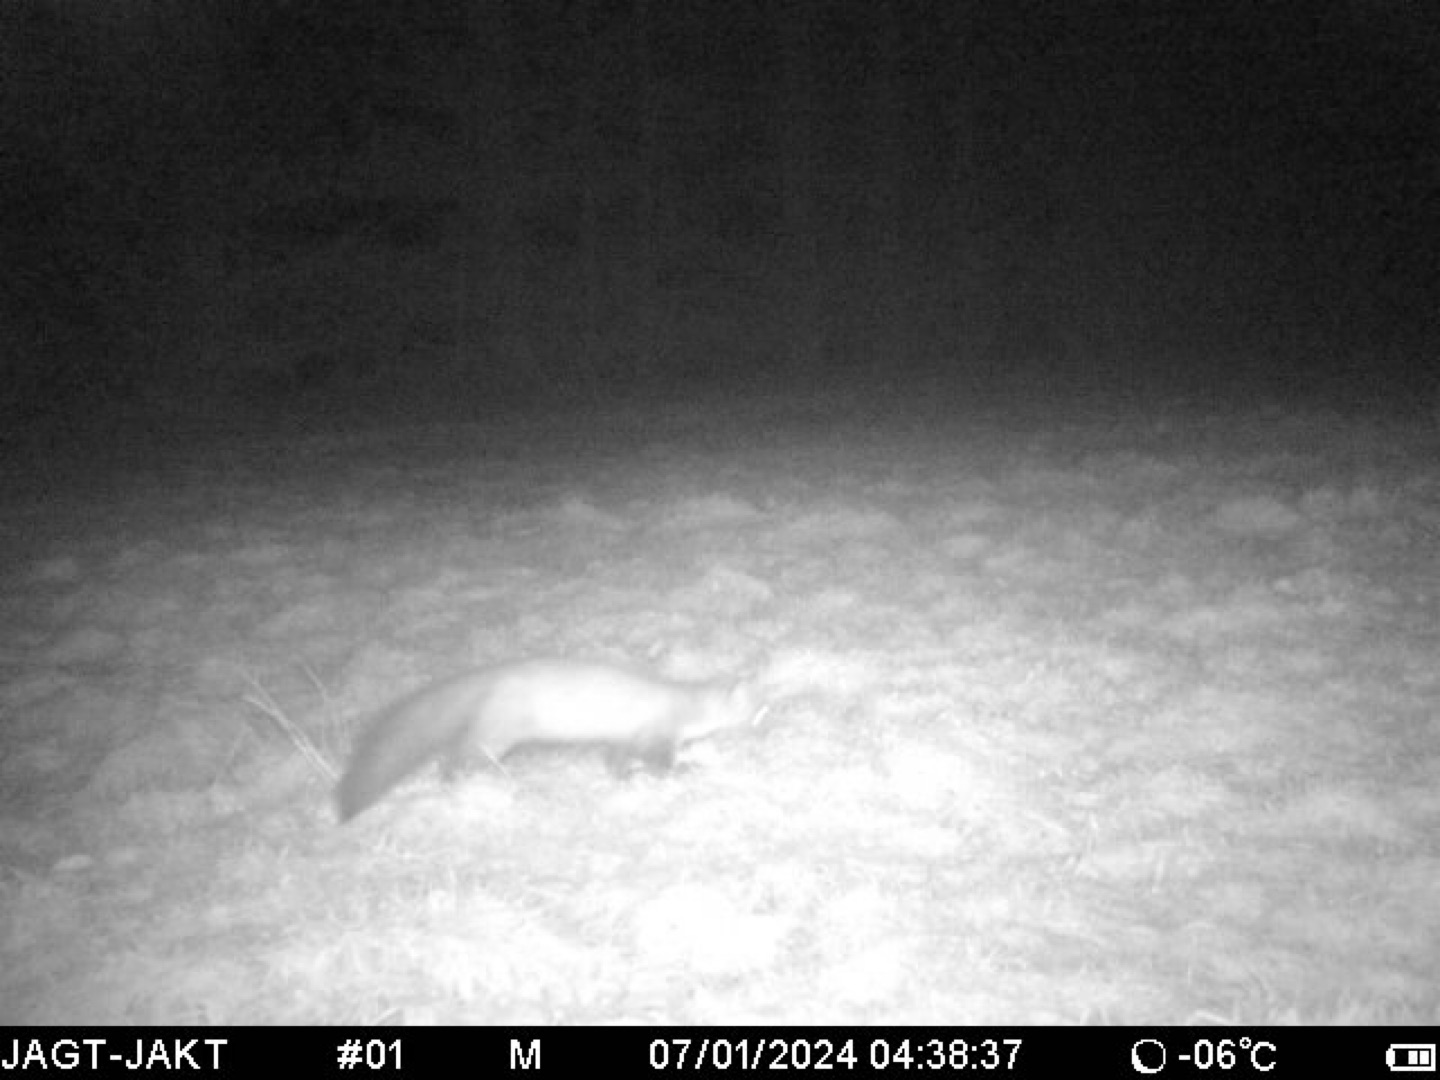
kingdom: Animalia
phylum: Chordata
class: Mammalia
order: Carnivora
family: Mustelidae
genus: Martes
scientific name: Martes foina
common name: Husmår
